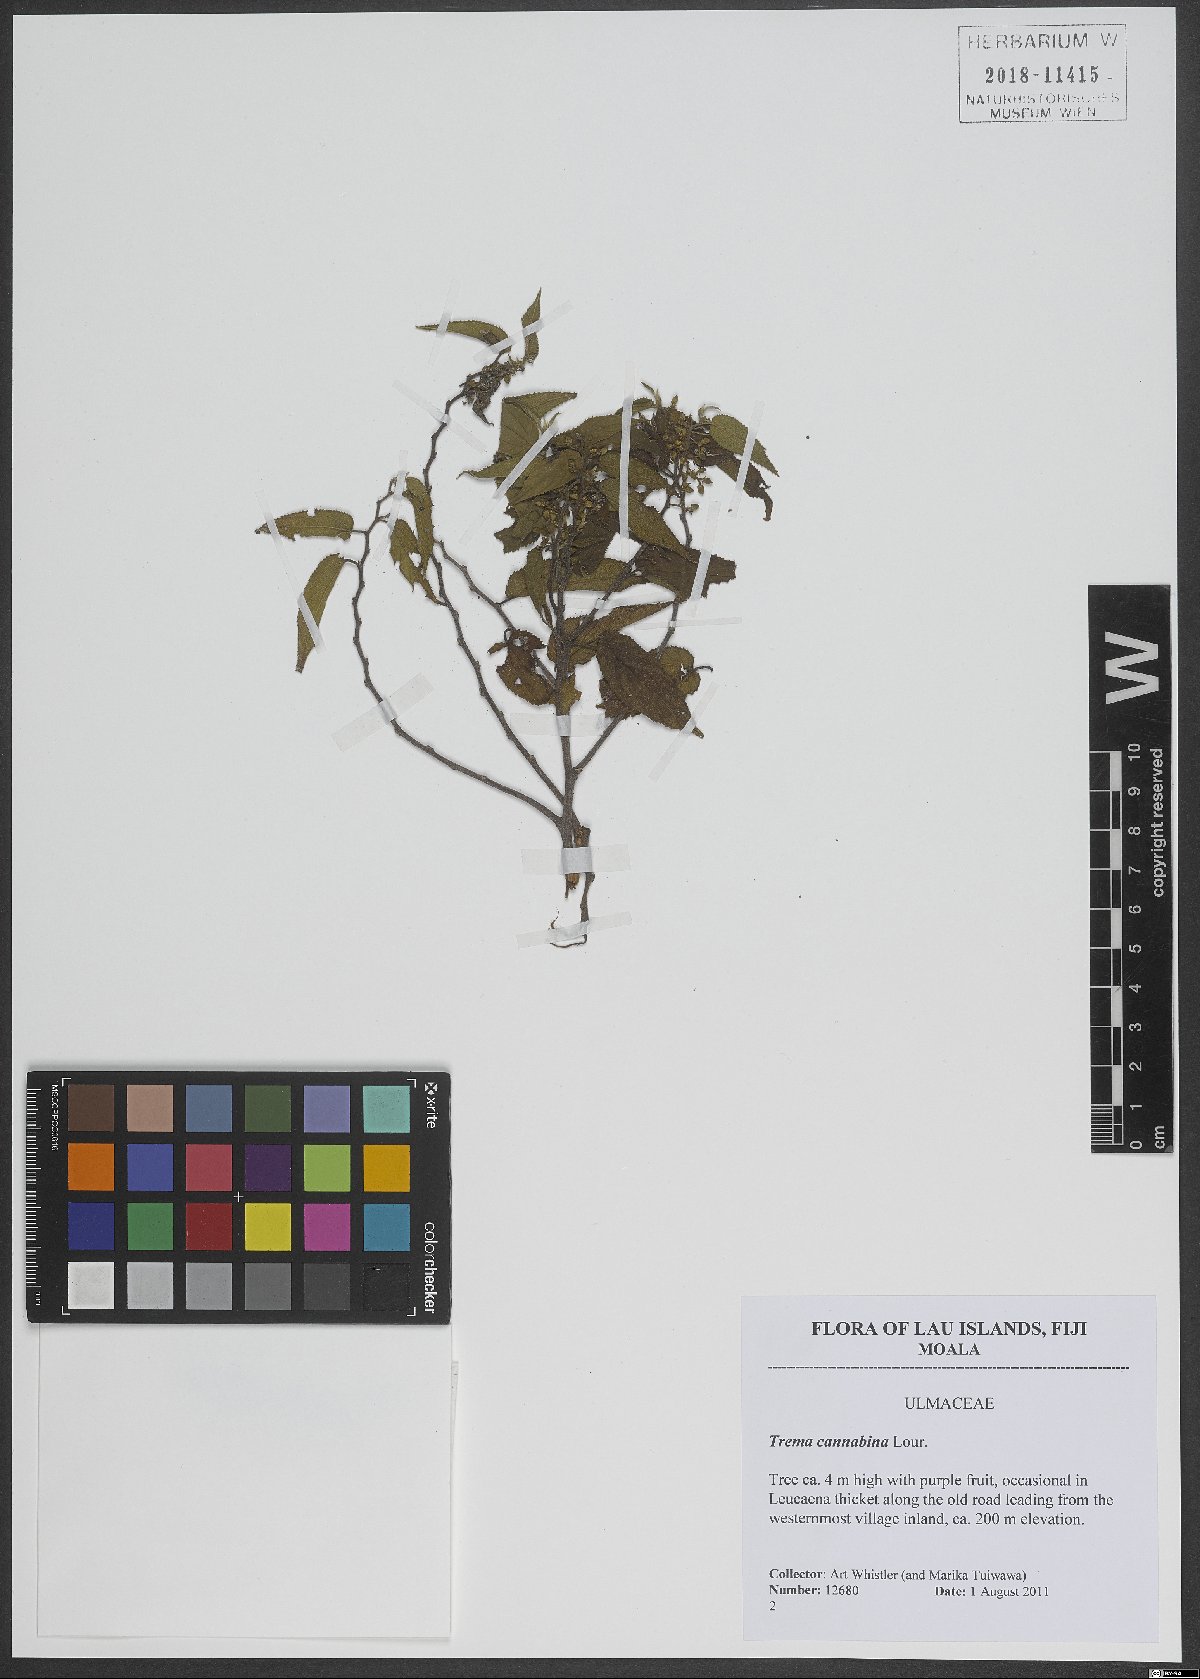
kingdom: Plantae
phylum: Tracheophyta
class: Magnoliopsida
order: Rosales
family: Cannabaceae
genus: Trema
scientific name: Trema cannabina
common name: Poison-peach
